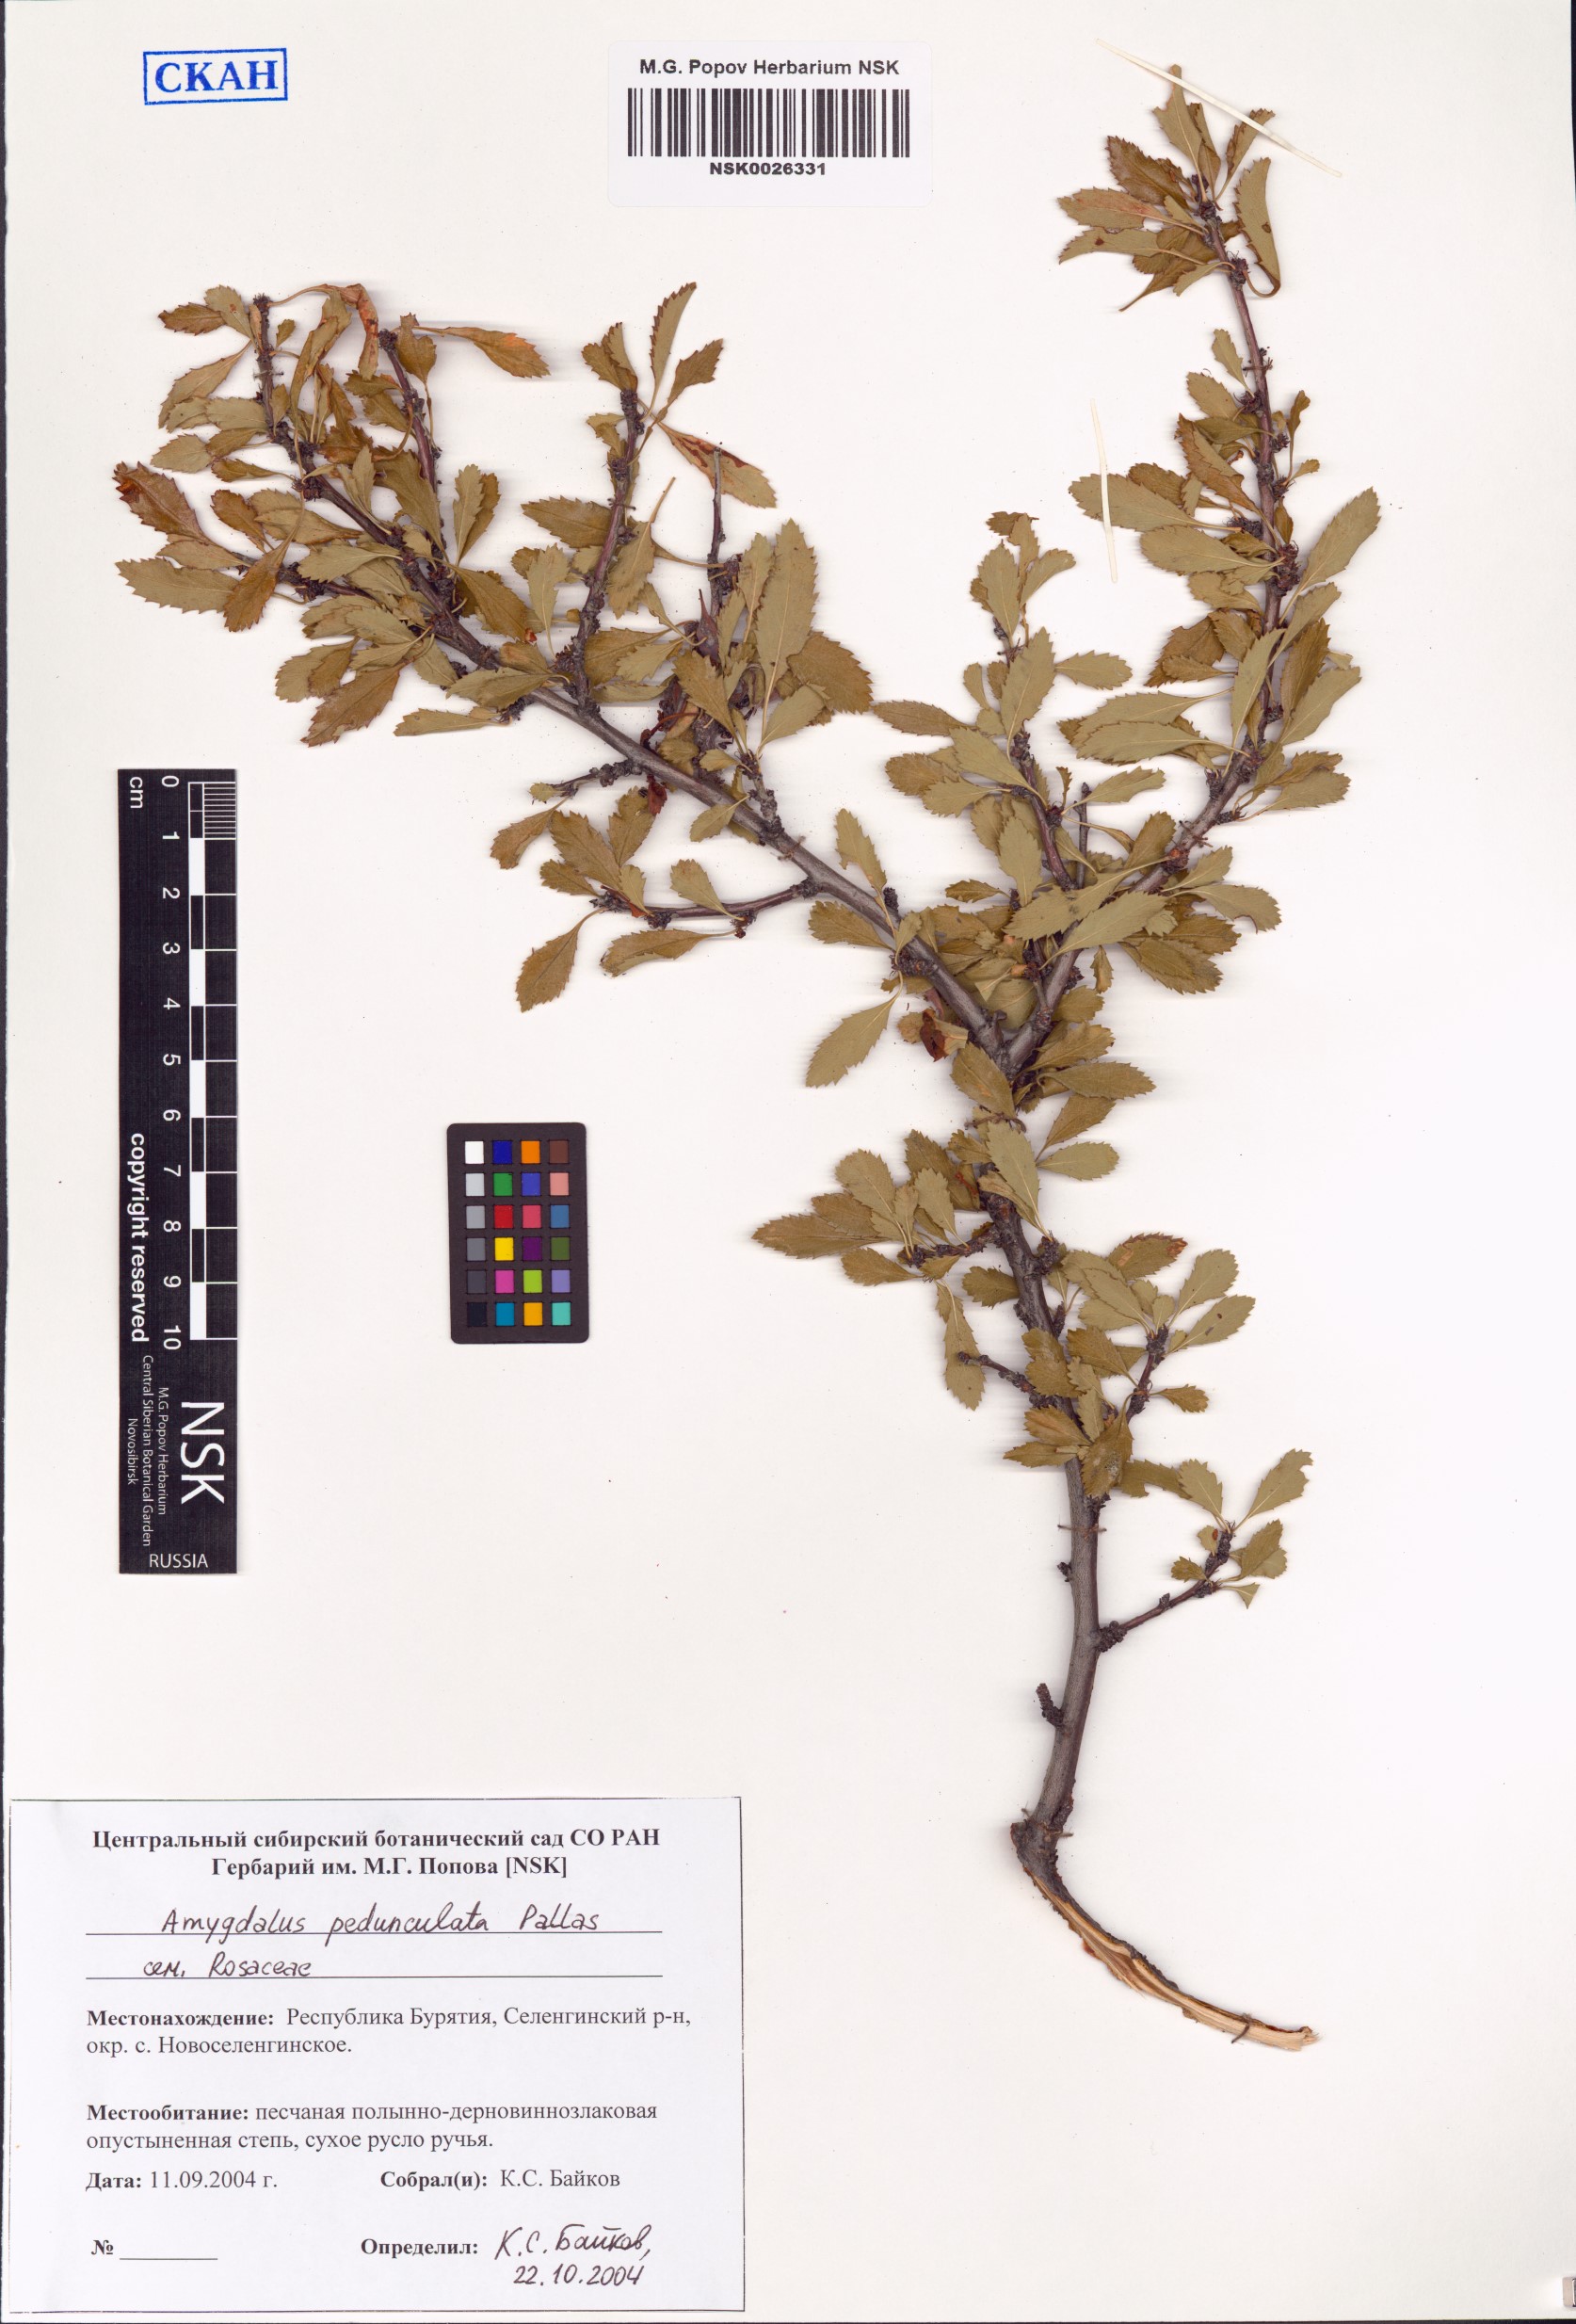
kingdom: Plantae
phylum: Tracheophyta
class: Magnoliopsida
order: Rosales
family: Rosaceae
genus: Prunus
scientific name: Prunus pedunculata
